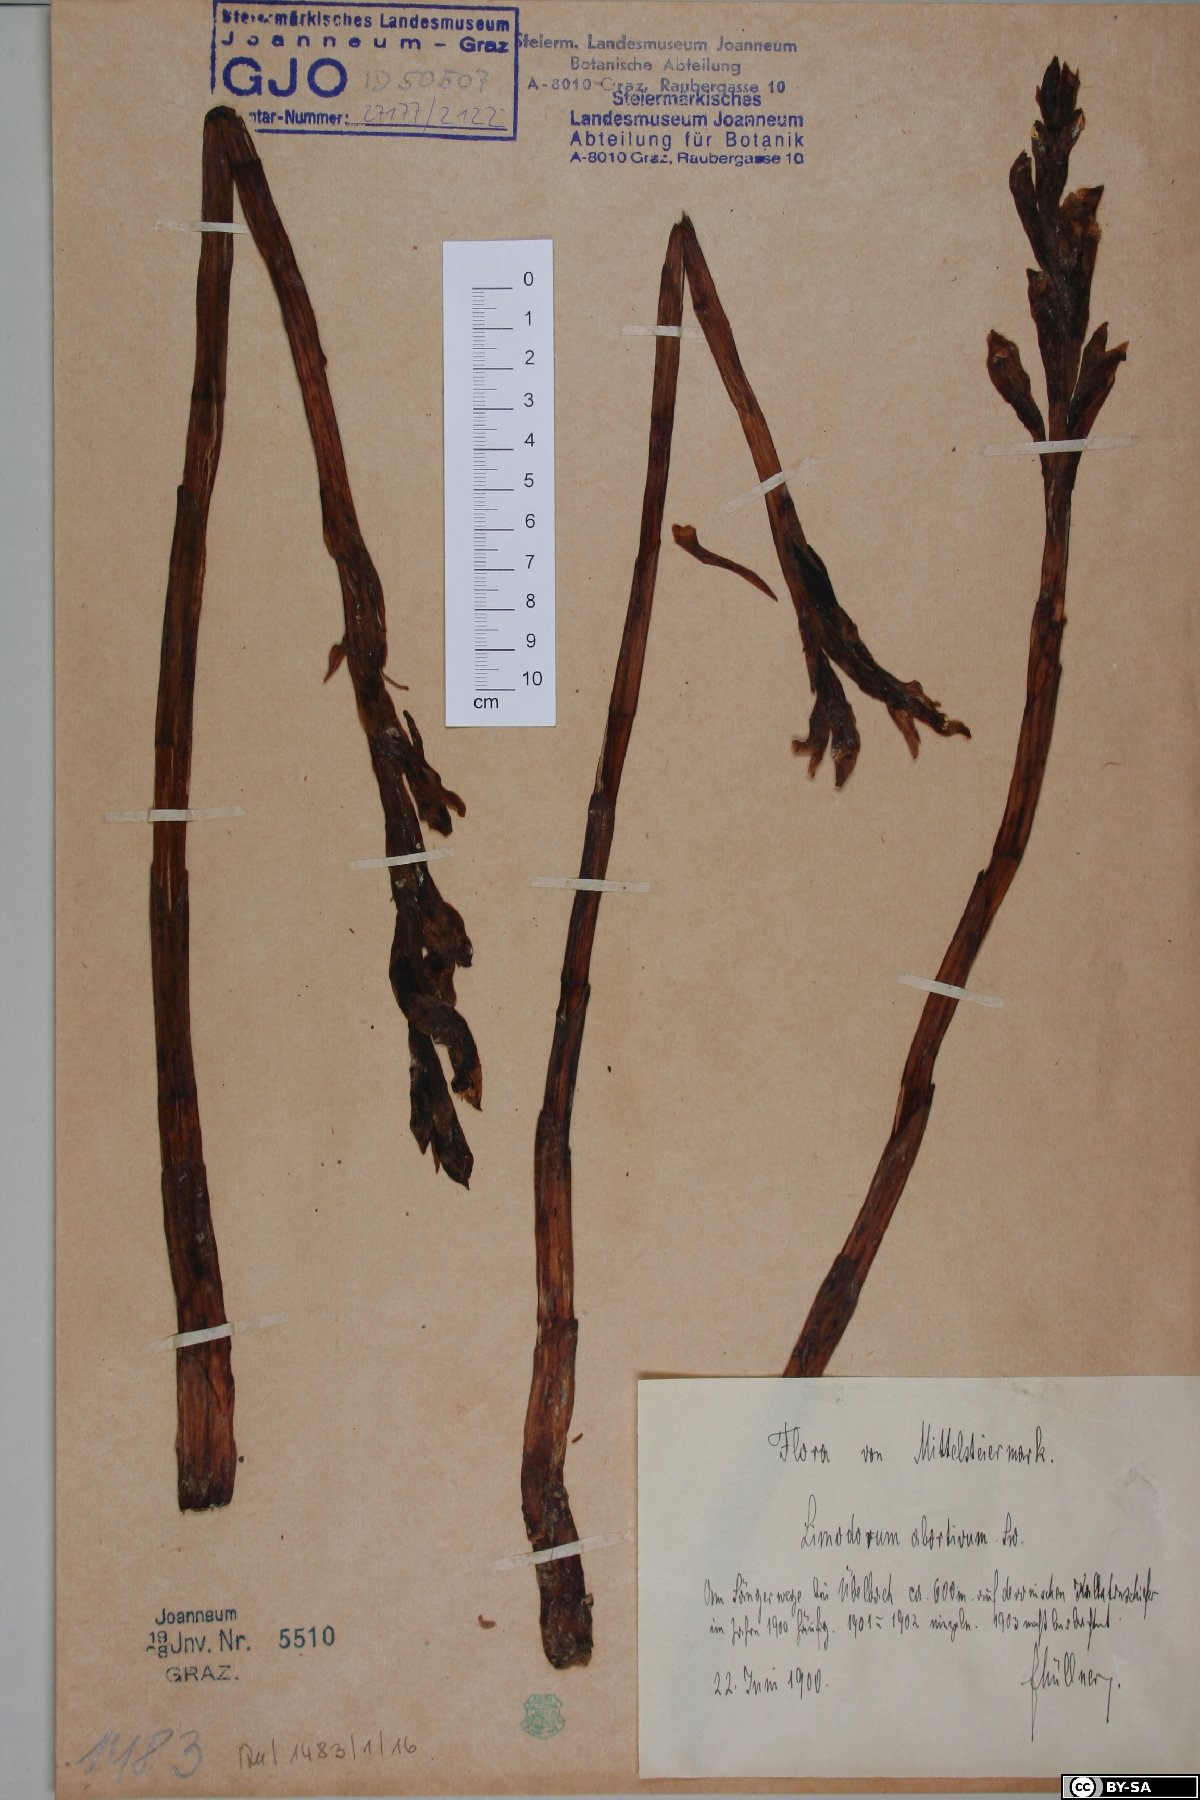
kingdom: Plantae
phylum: Tracheophyta
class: Liliopsida
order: Asparagales
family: Orchidaceae
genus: Limodorum
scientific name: Limodorum abortivum
